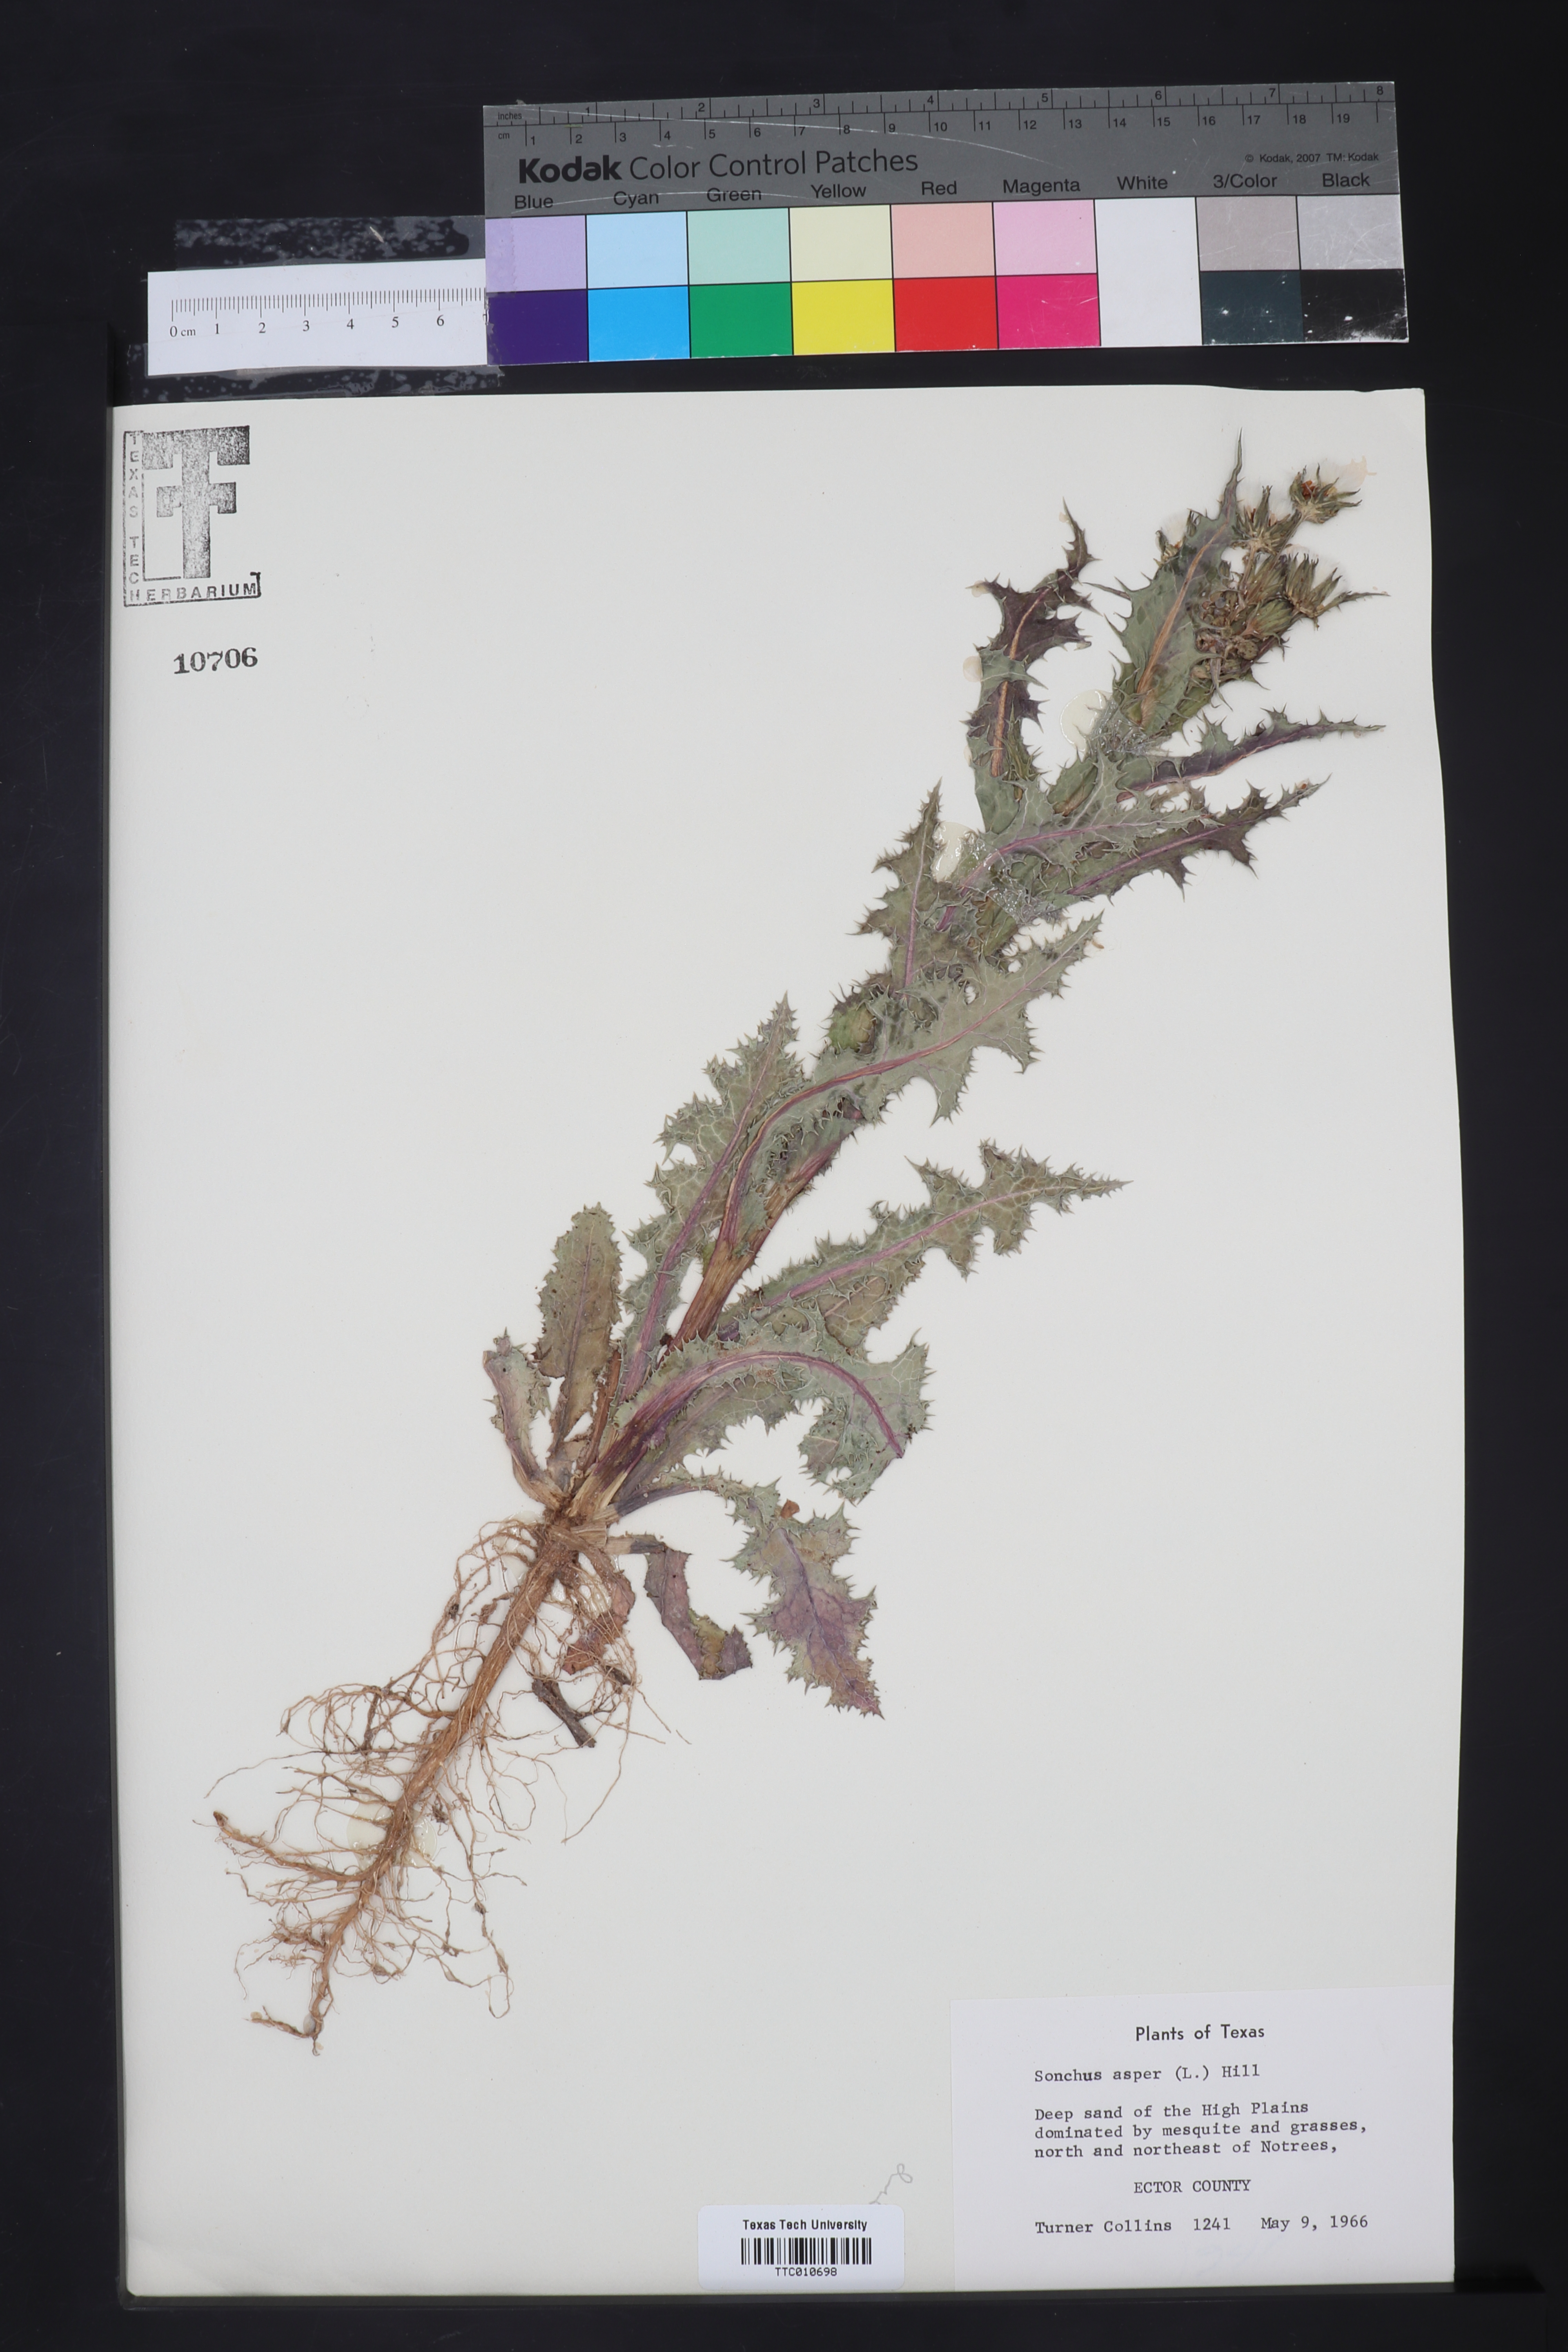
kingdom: Plantae
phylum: Tracheophyta
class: Magnoliopsida
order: Asterales
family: Asteraceae
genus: Sonchus
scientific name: Sonchus asper
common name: Prickly sow-thistle
